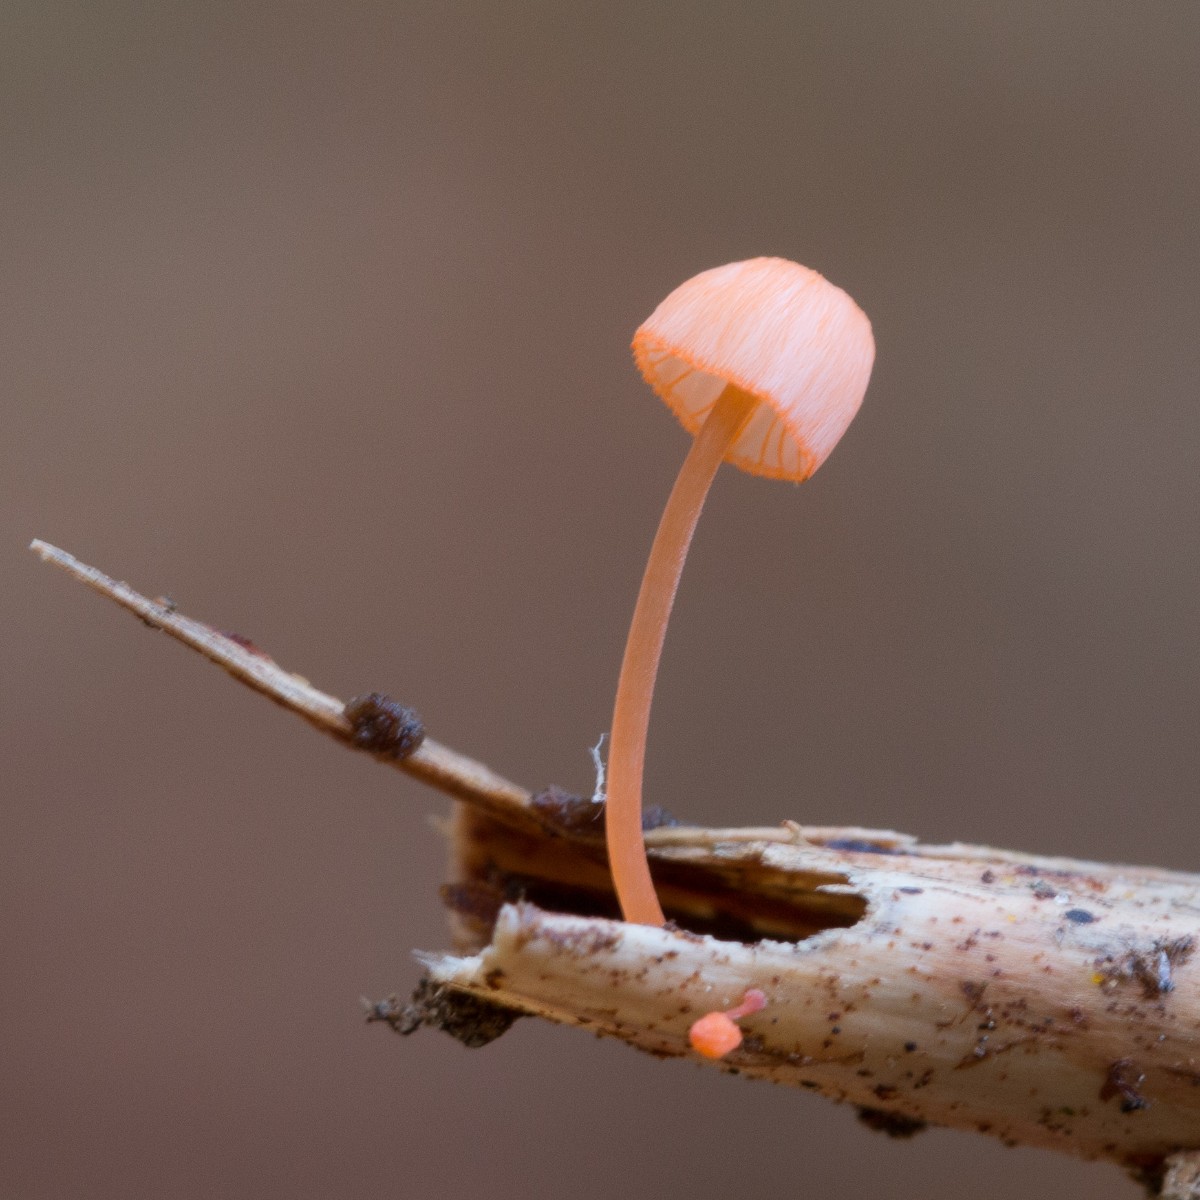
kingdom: Fungi
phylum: Basidiomycota
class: Agaricomycetes
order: Agaricales
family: Mycenaceae
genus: Mycena
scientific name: Mycena pterigena
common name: bregne-huesvamp
